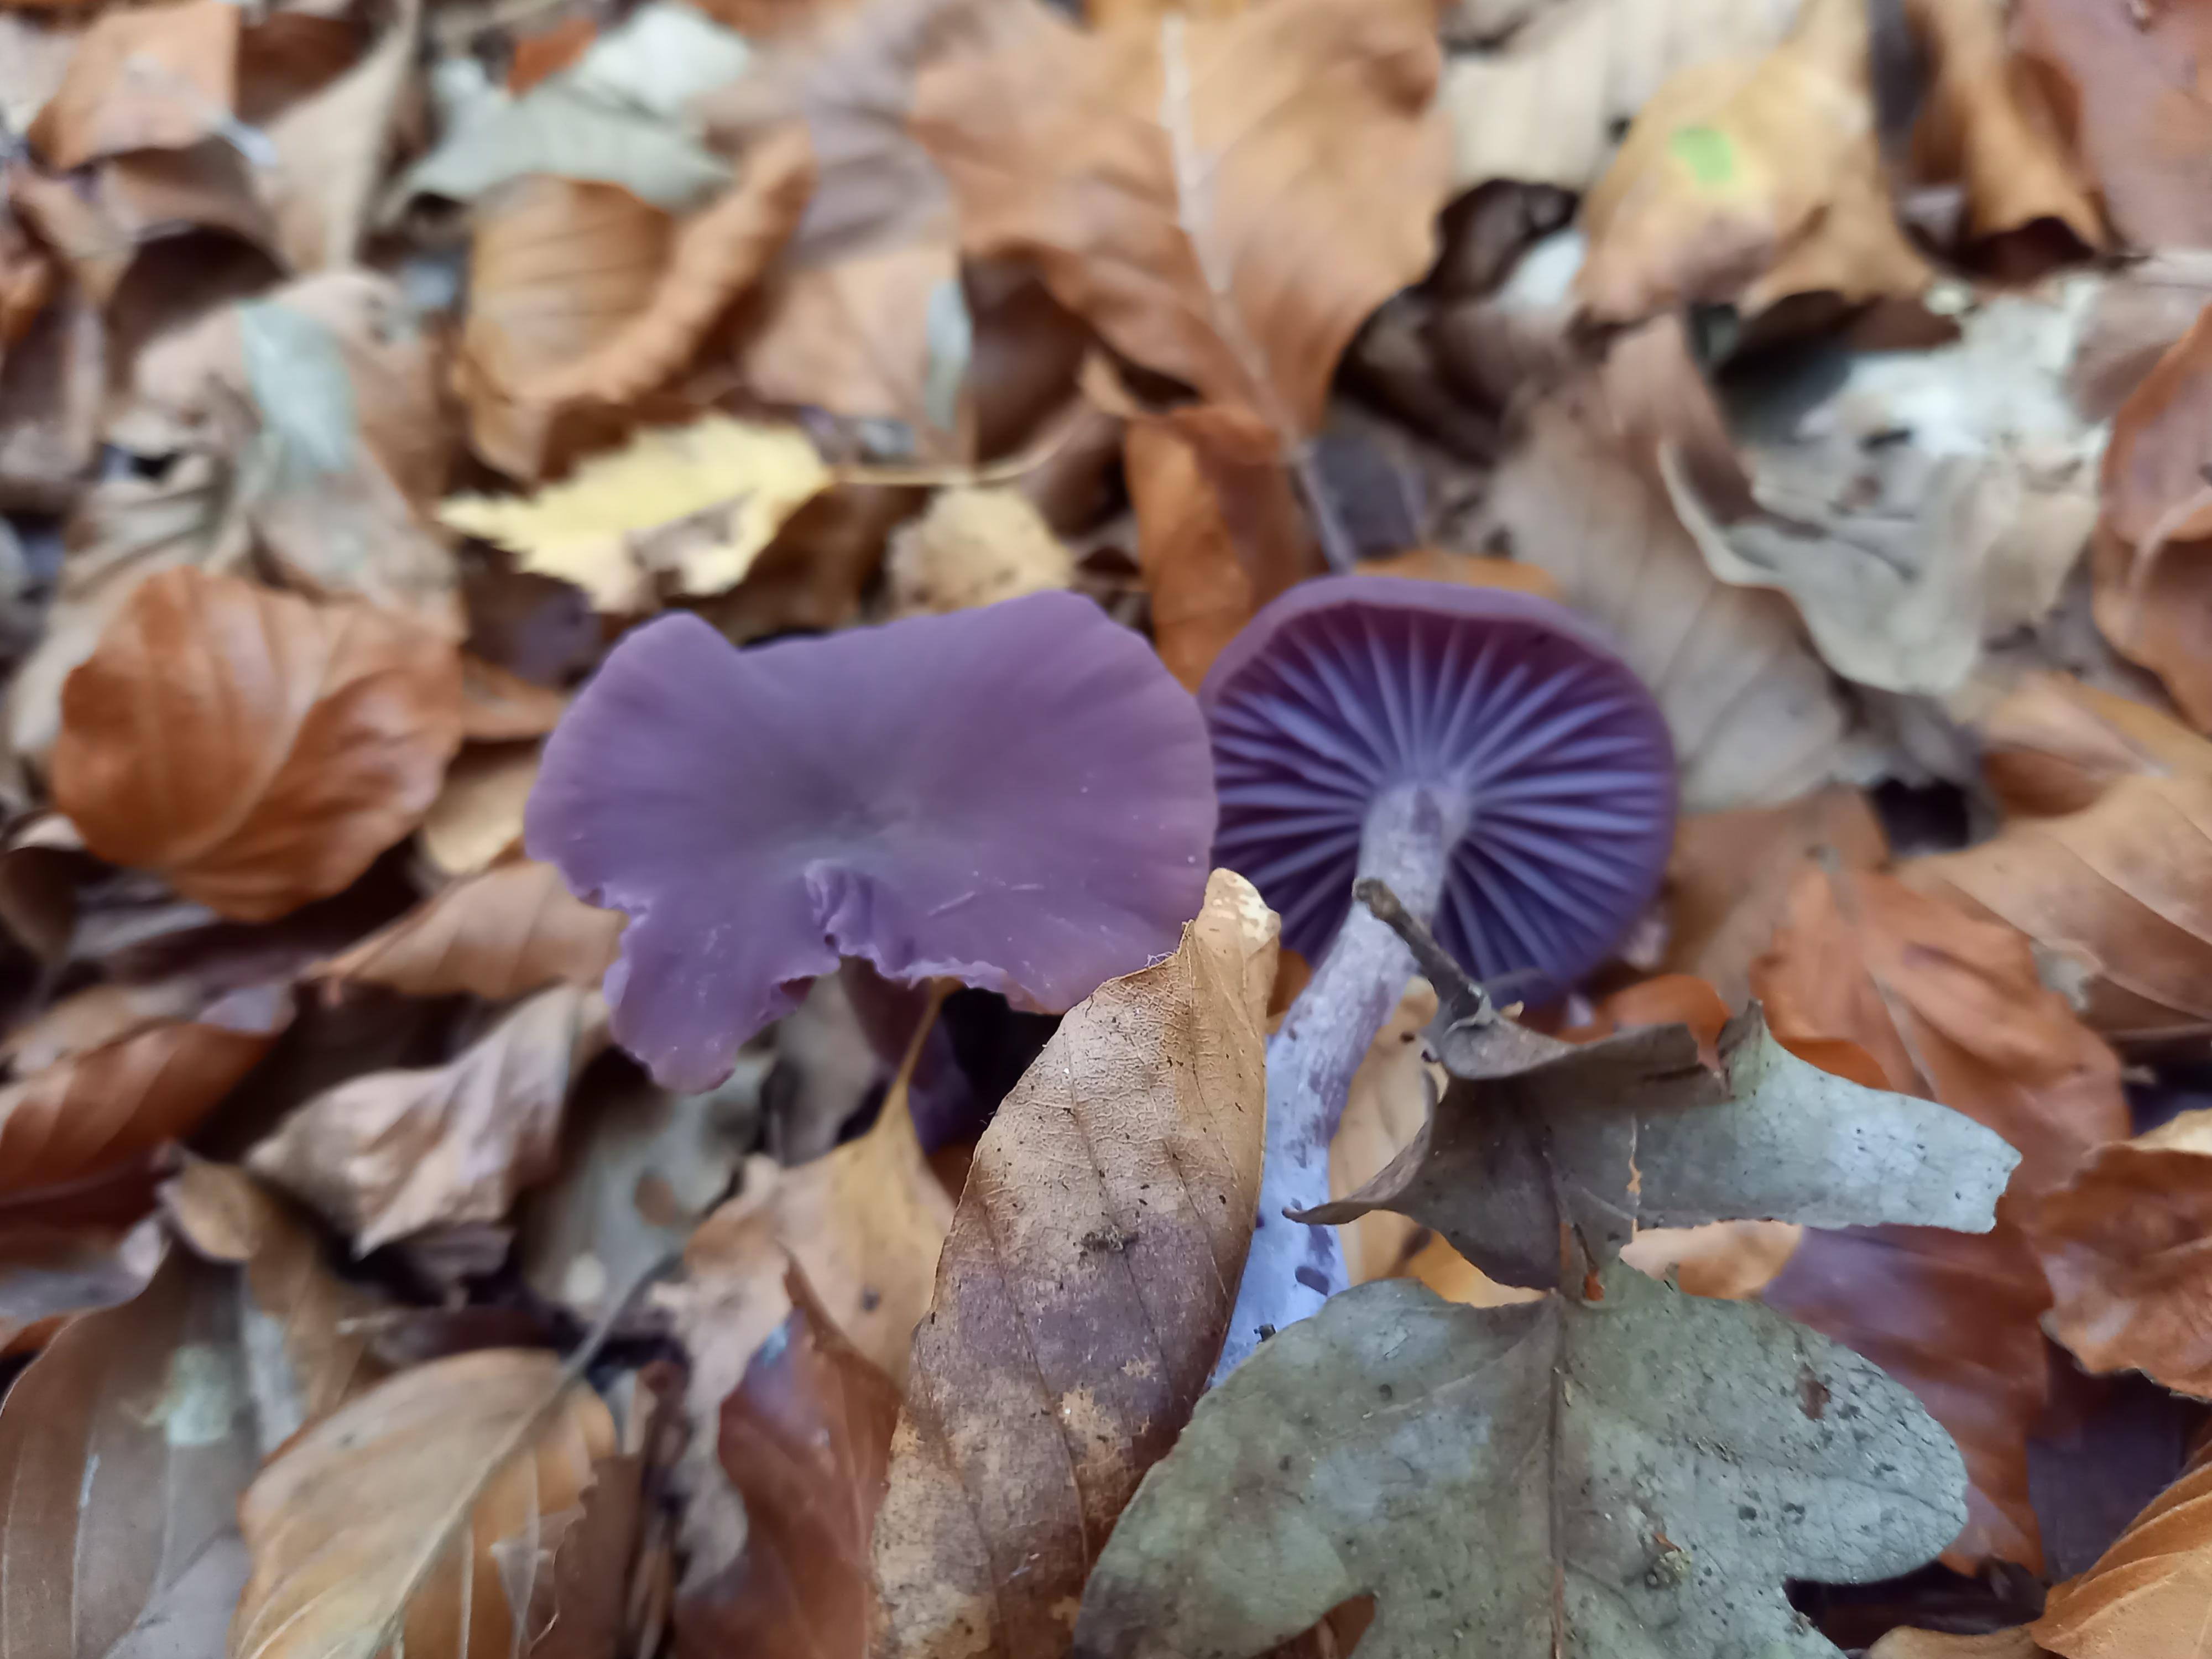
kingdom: Fungi
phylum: Basidiomycota
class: Agaricomycetes
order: Agaricales
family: Hydnangiaceae
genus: Laccaria
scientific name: Laccaria amethystina
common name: violet ametysthat
